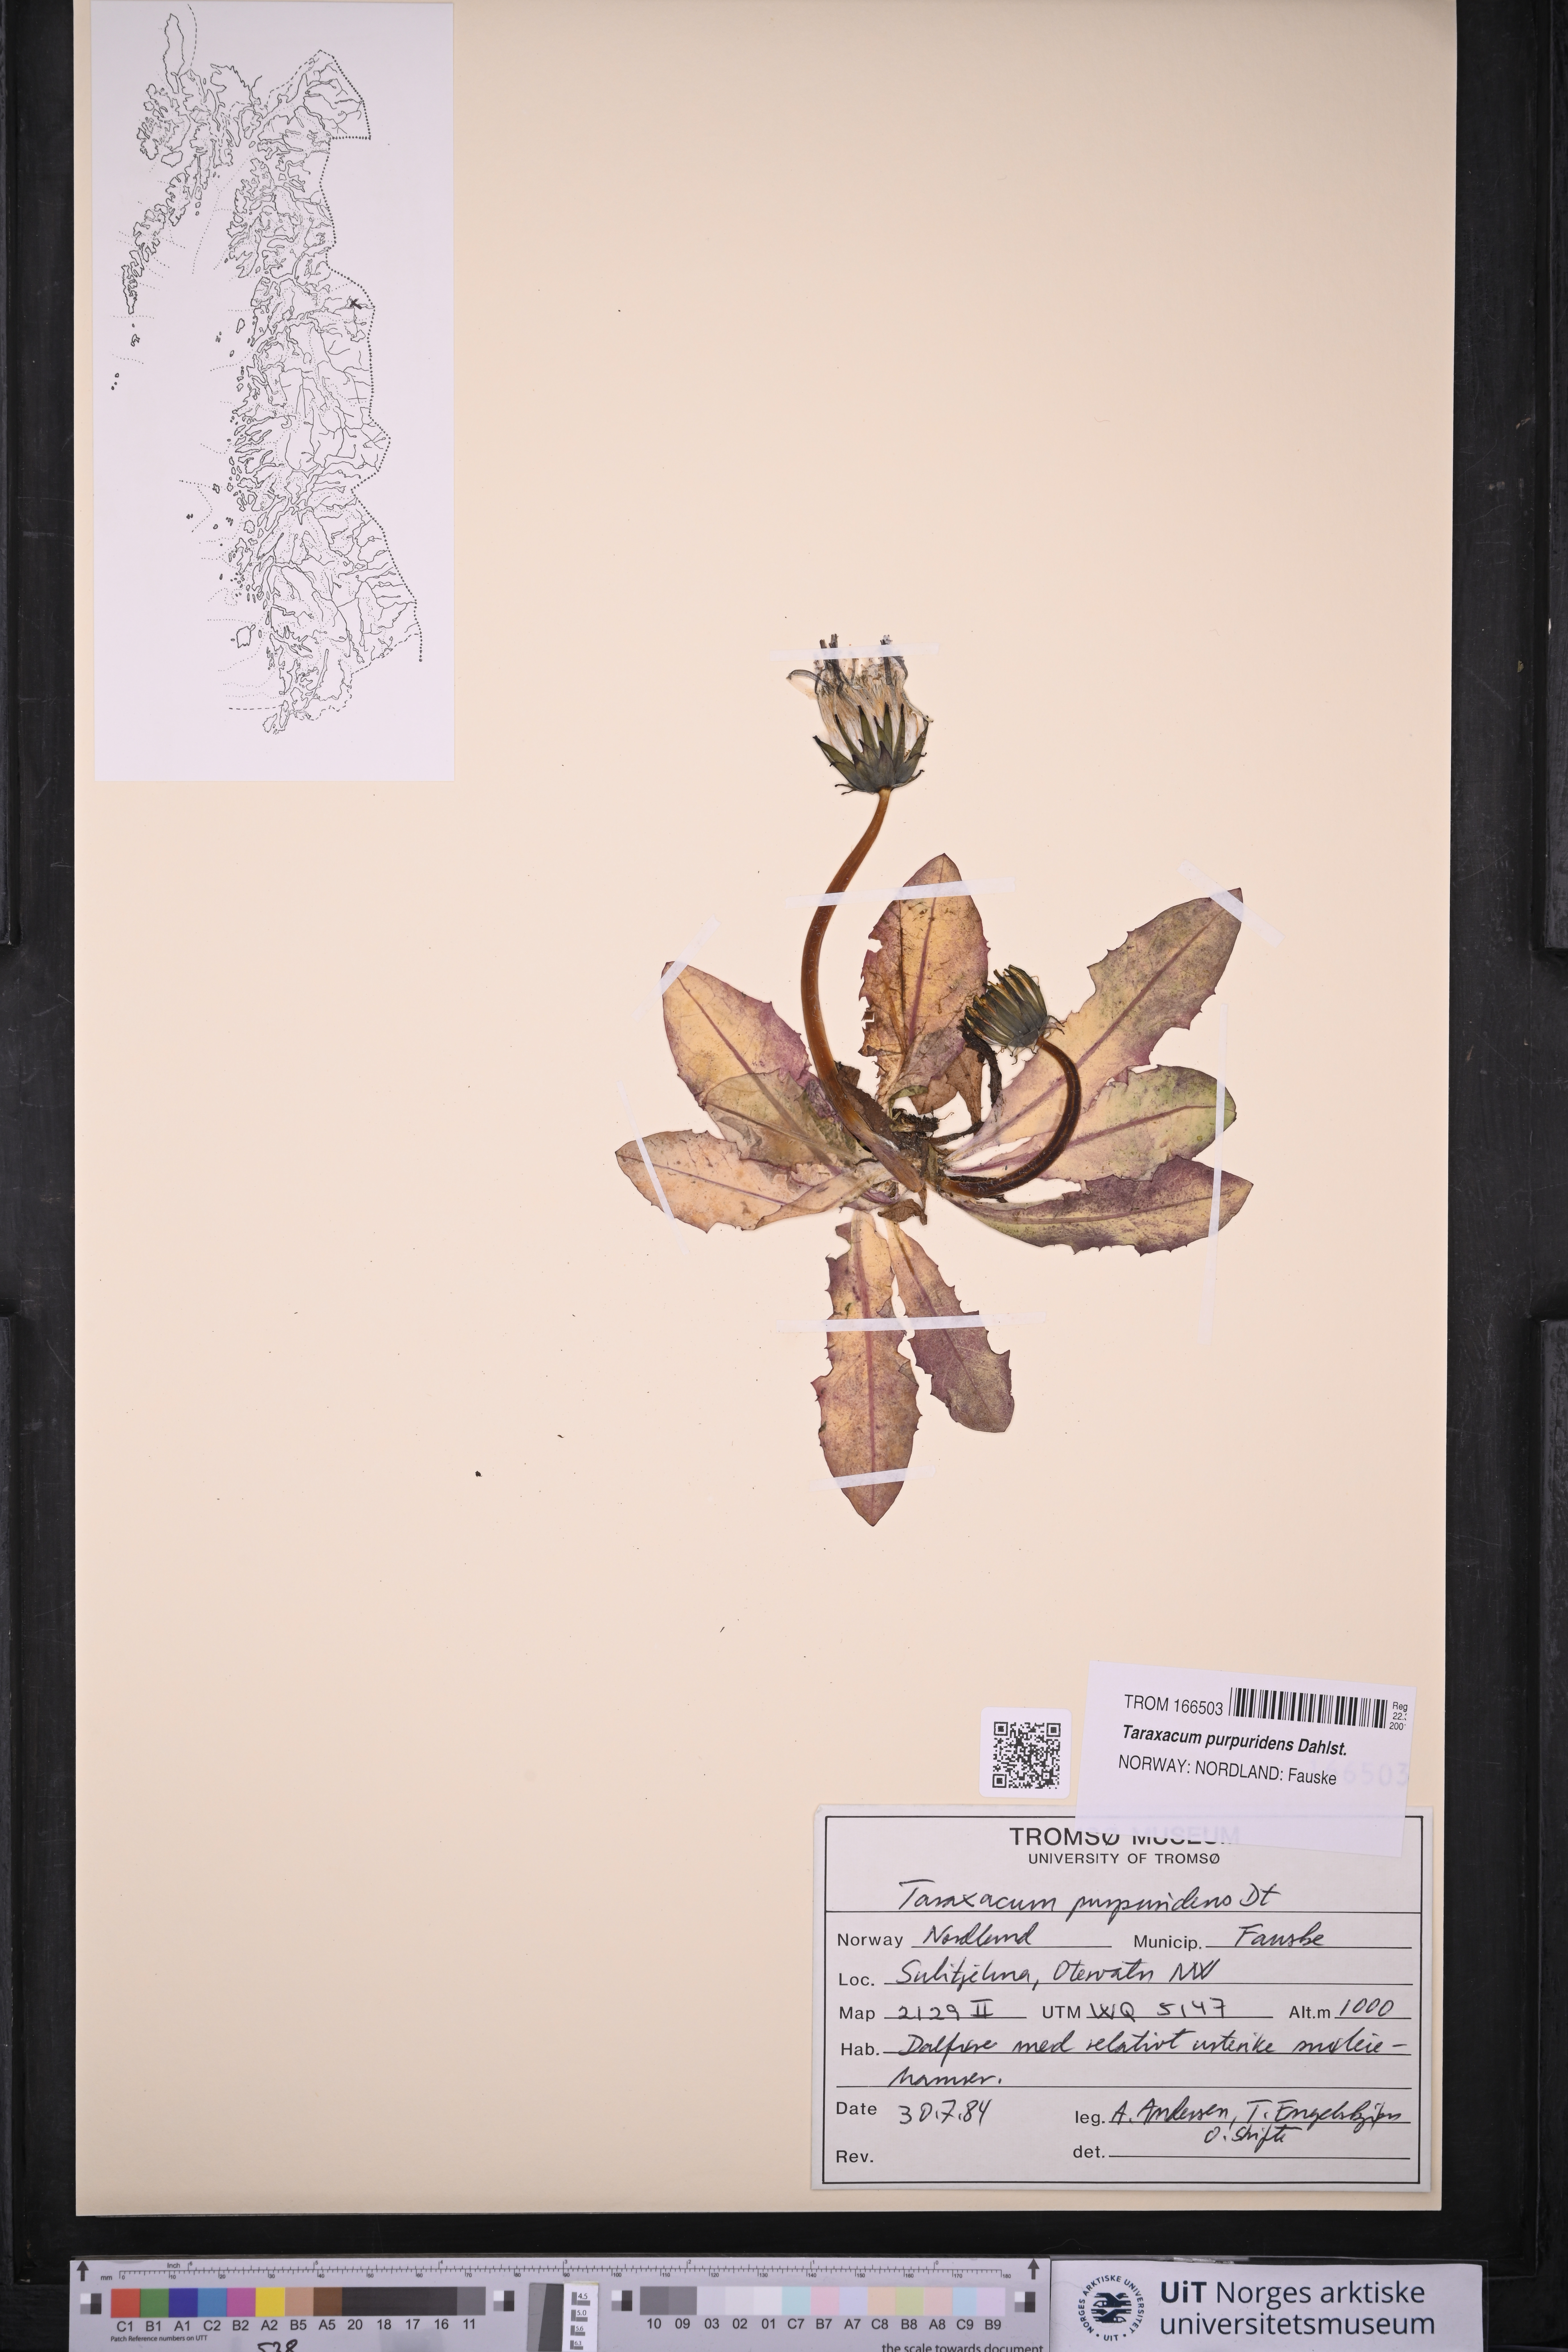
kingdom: Plantae
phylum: Tracheophyta
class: Magnoliopsida
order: Asterales
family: Asteraceae
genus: Taraxacum
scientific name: Taraxacum purpuridens
